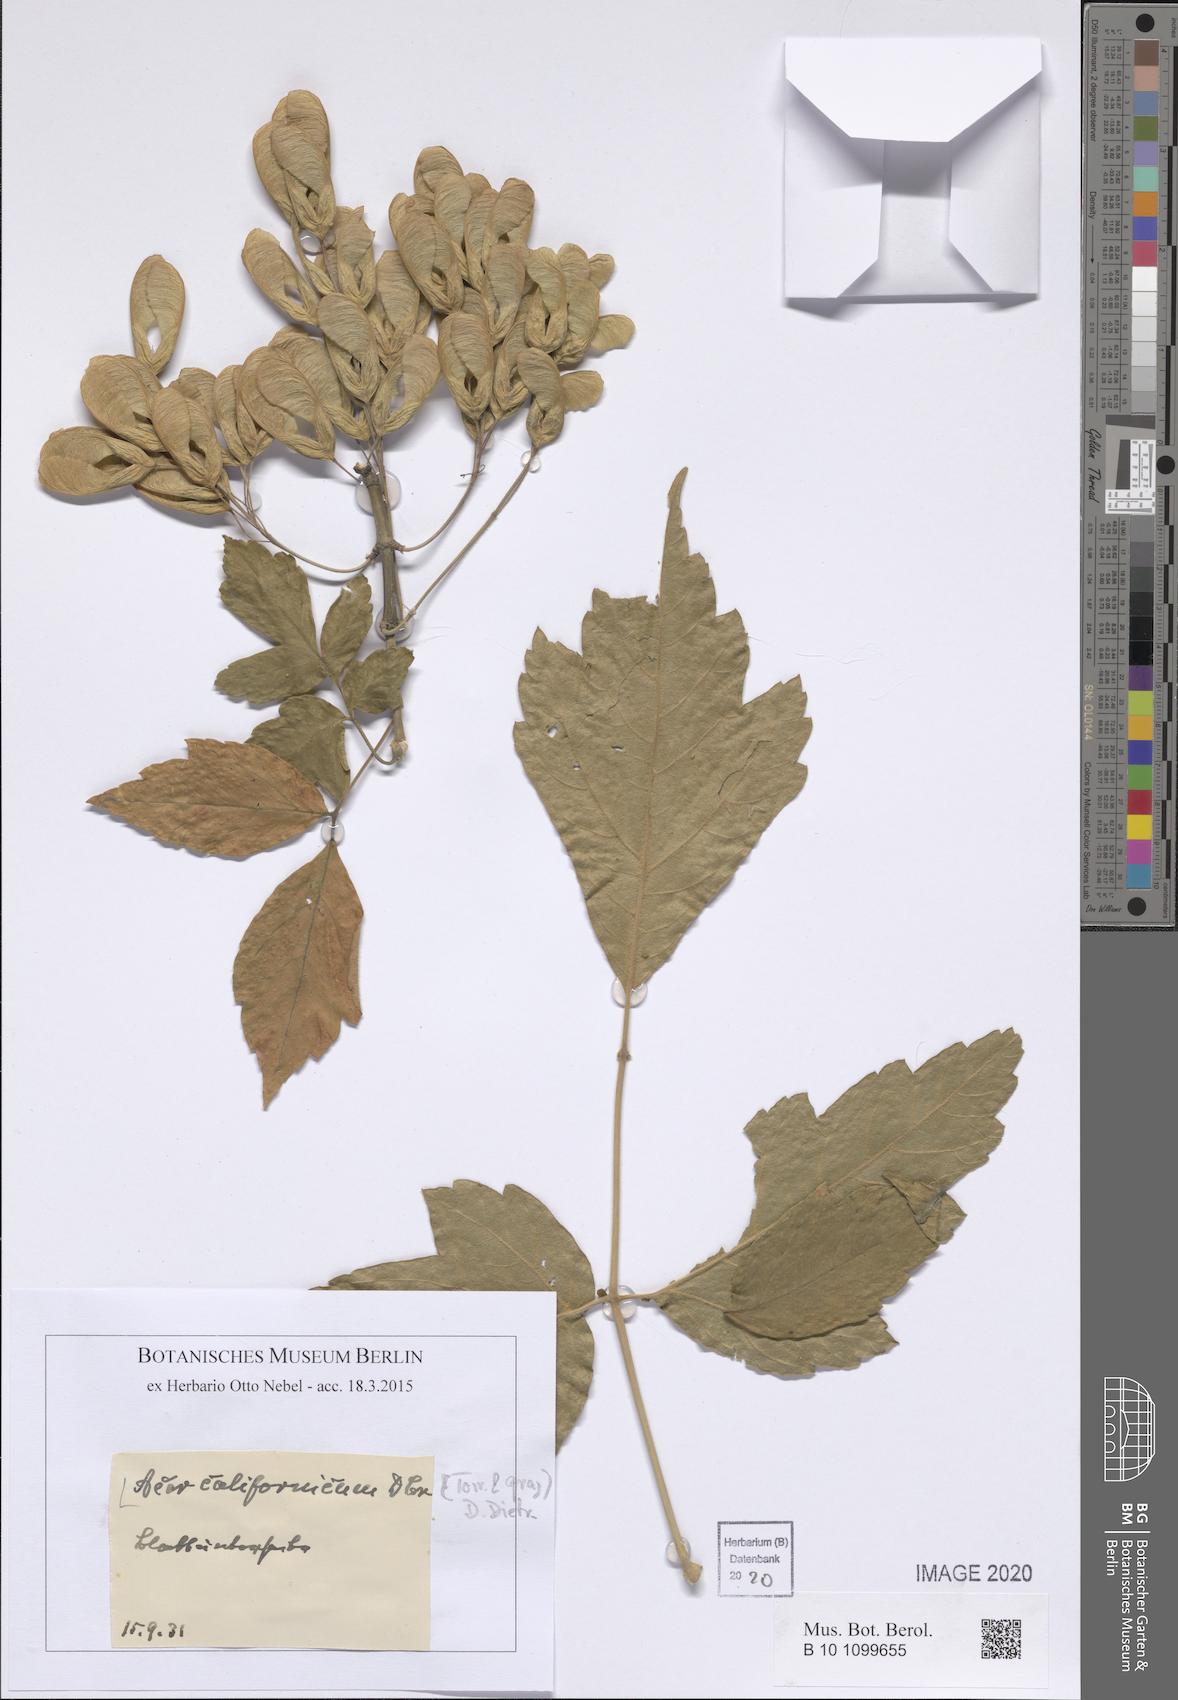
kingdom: Plantae
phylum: Tracheophyta
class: Magnoliopsida
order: Sapindales
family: Sapindaceae
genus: Acer
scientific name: Acer negundo
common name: Ashleaf maple
